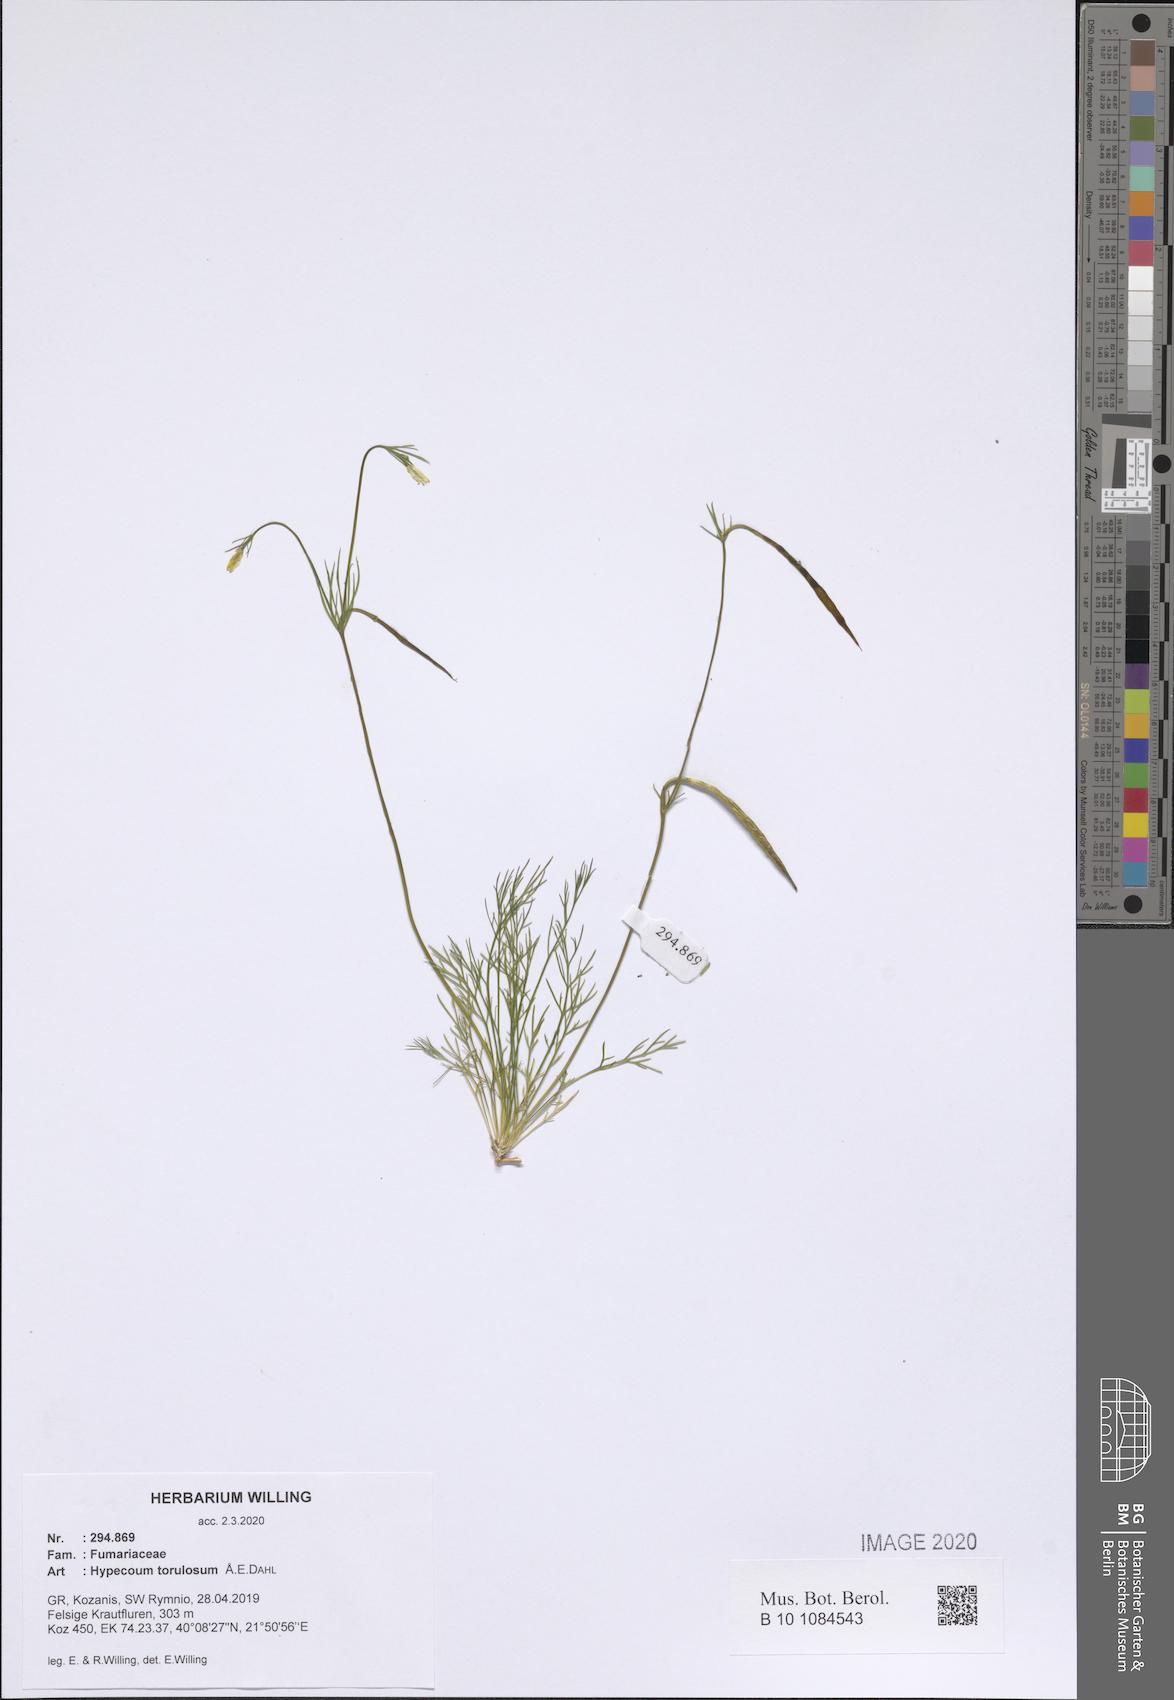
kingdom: Plantae
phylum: Tracheophyta
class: Magnoliopsida
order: Ranunculales
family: Papaveraceae
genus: Hypecoum
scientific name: Hypecoum torulosum
